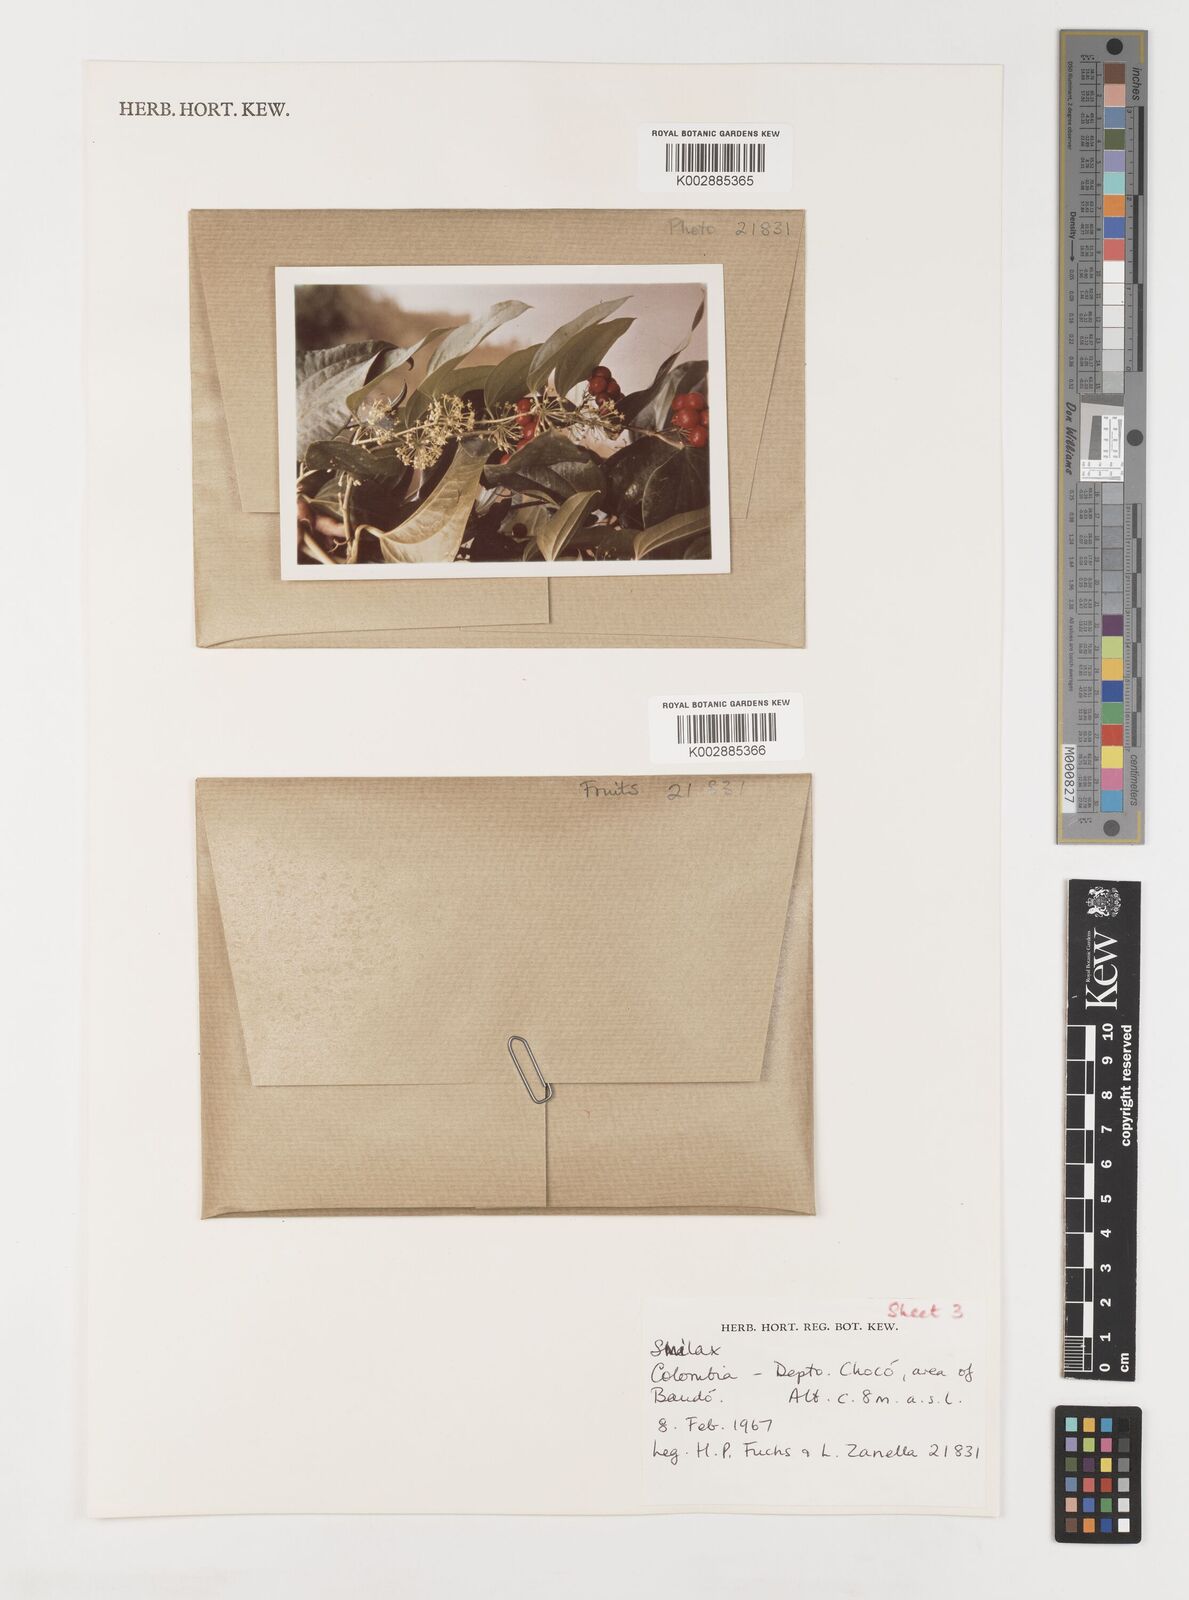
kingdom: Plantae
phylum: Tracheophyta
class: Liliopsida
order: Liliales
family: Smilacaceae
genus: Smilax
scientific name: Smilax
